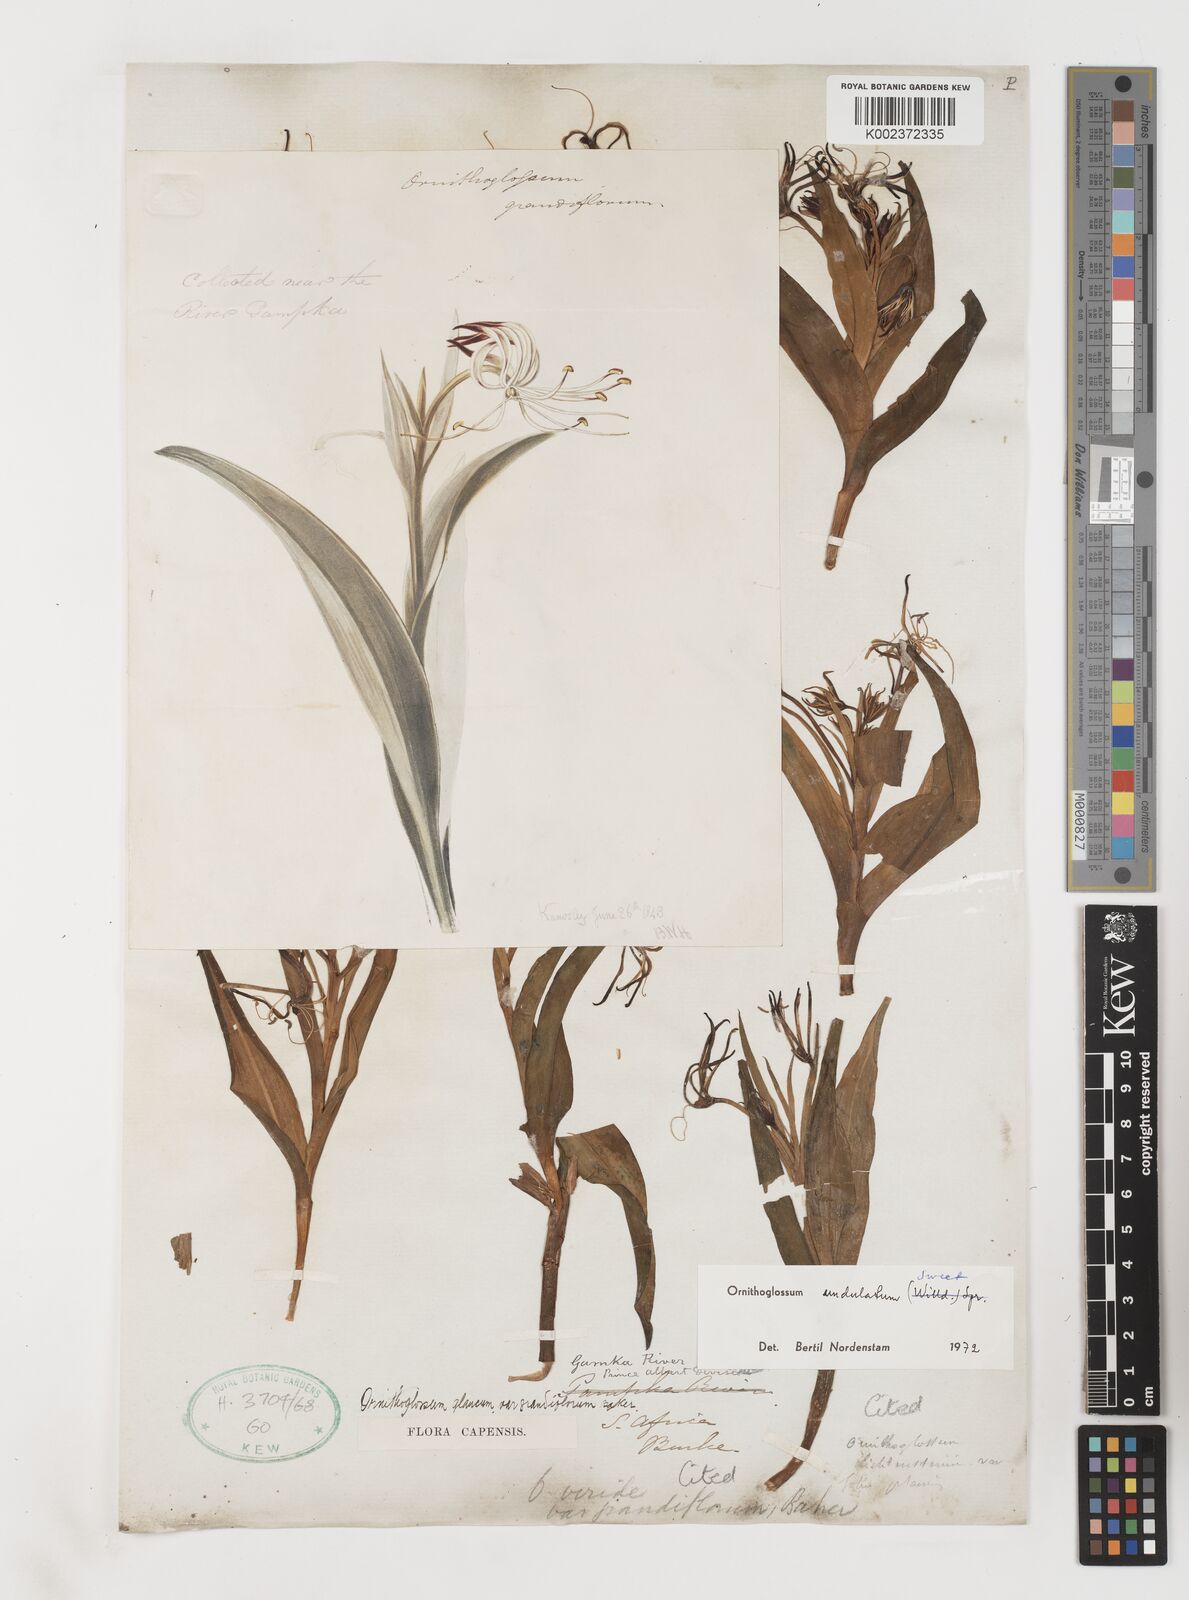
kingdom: Plantae
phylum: Tracheophyta
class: Liliopsida
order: Liliales
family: Colchicaceae
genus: Ornithoglossum
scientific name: Ornithoglossum undulatum
